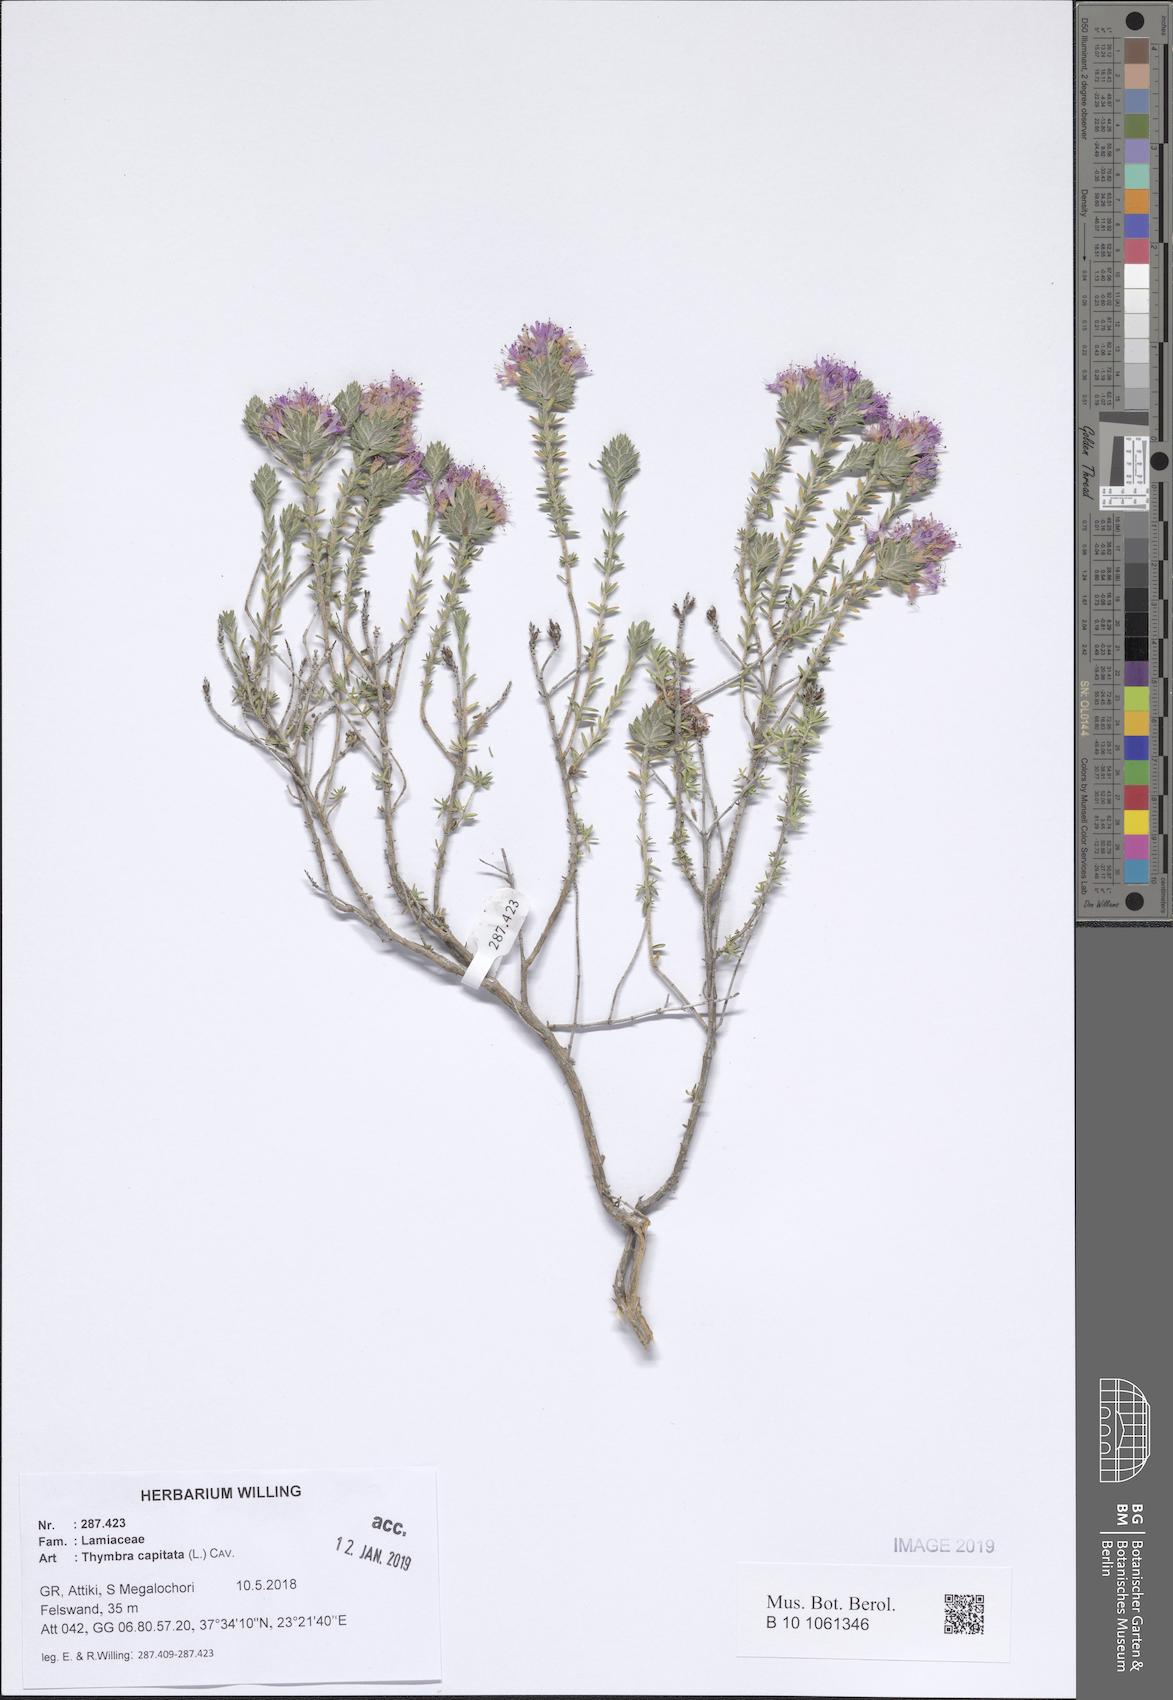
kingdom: Plantae
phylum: Tracheophyta
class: Magnoliopsida
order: Lamiales
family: Lamiaceae
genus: Thymbra
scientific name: Thymbra capitata
